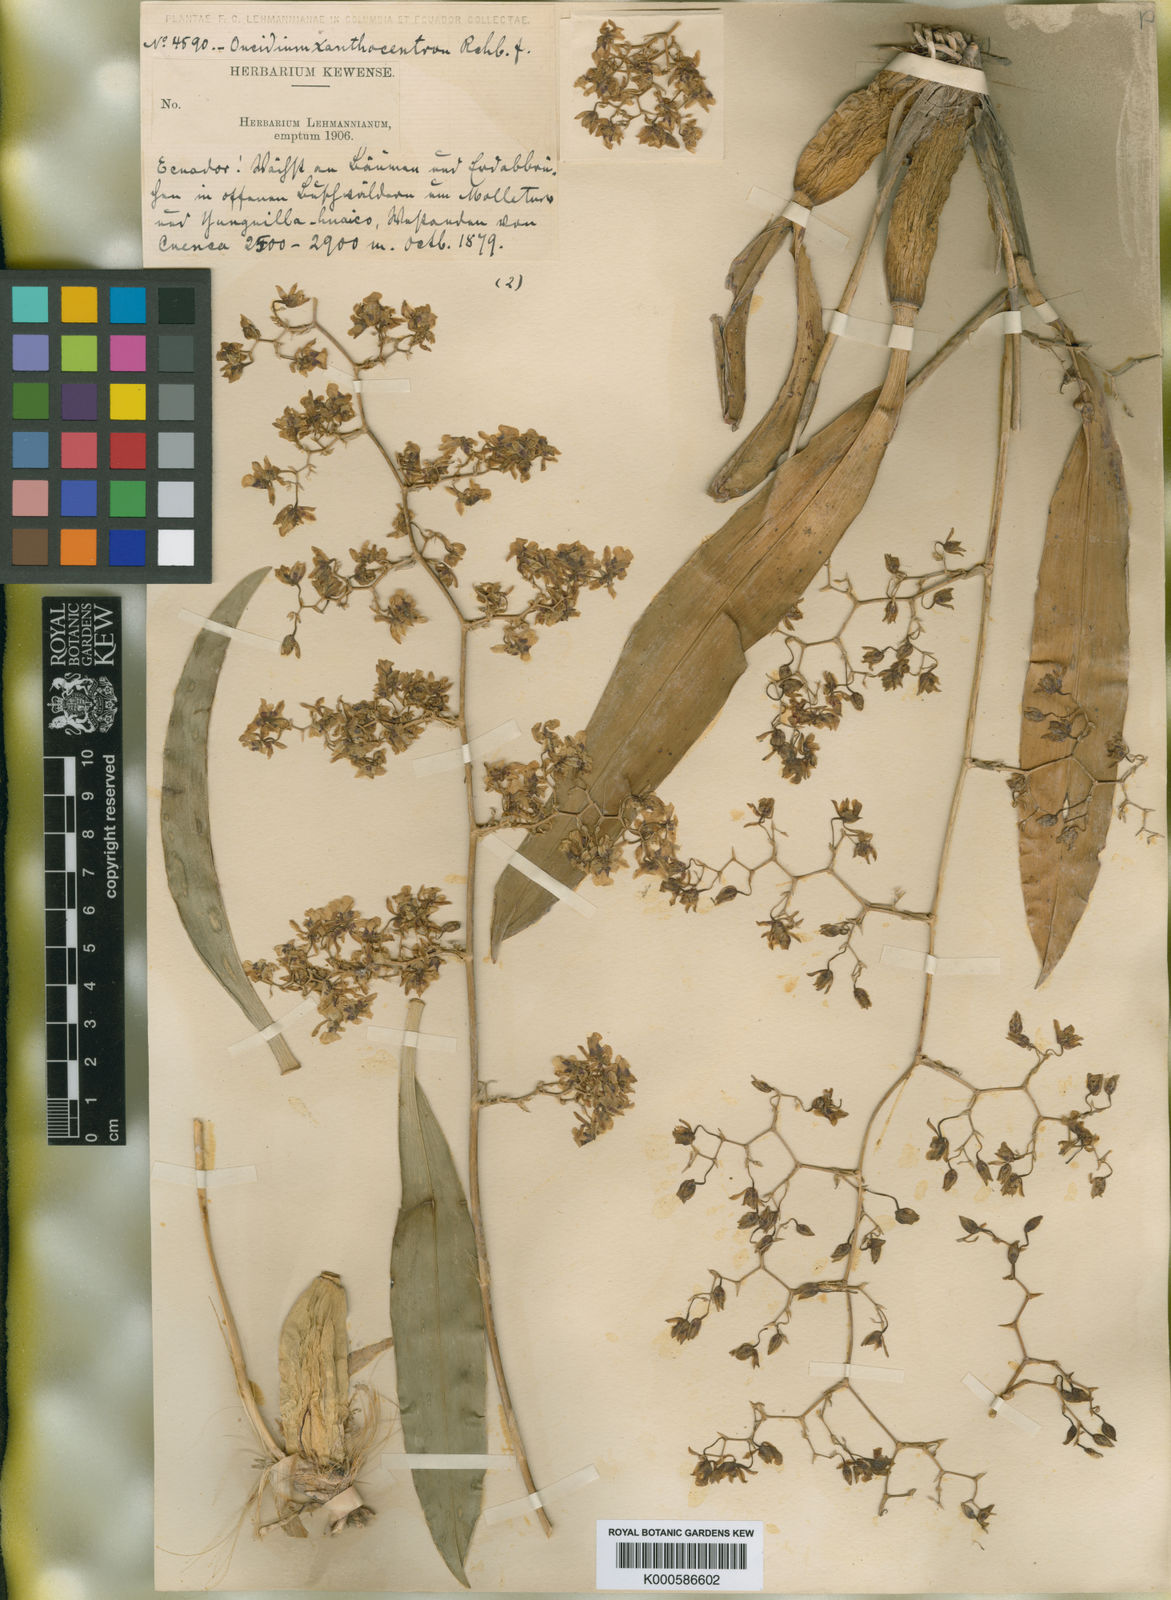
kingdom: Plantae
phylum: Tracheophyta
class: Liliopsida
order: Asparagales
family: Orchidaceae
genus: Oncidium
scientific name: Oncidium lancifolium
